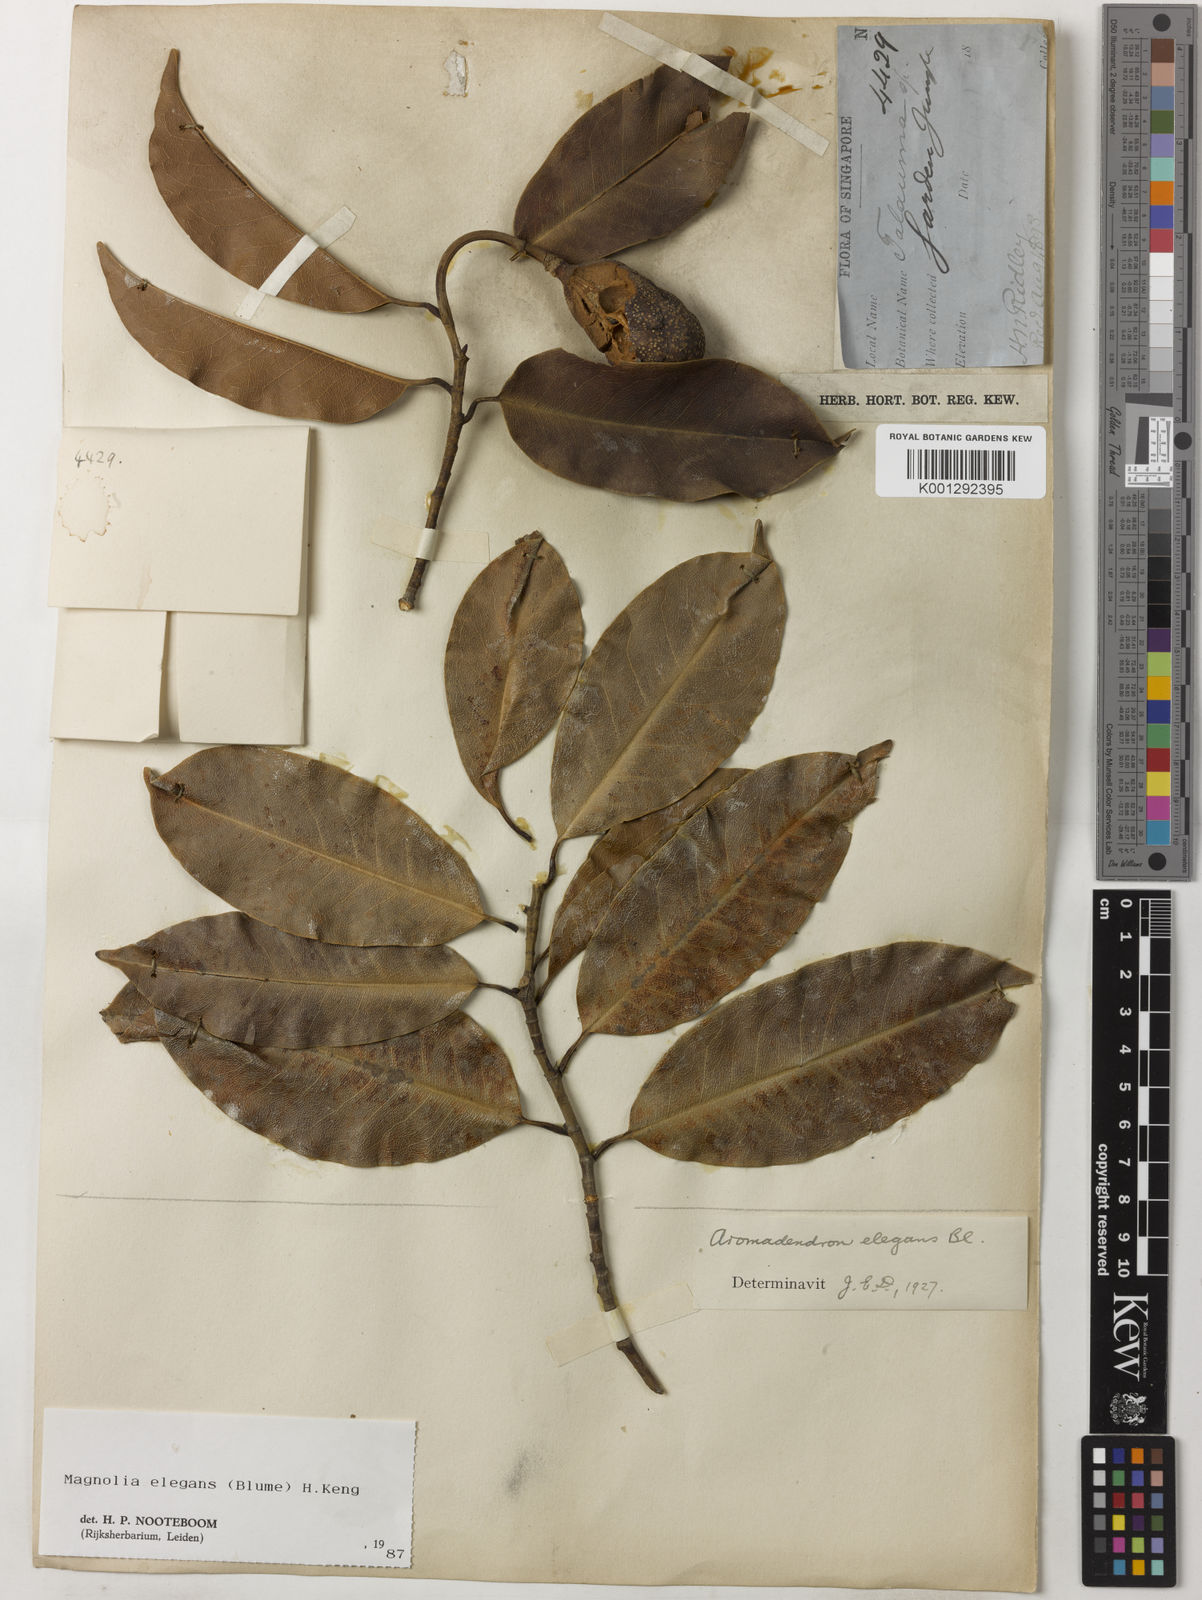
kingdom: Plantae
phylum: Tracheophyta
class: Magnoliopsida
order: Magnoliales
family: Magnoliaceae
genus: Magnolia
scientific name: Magnolia elegans
